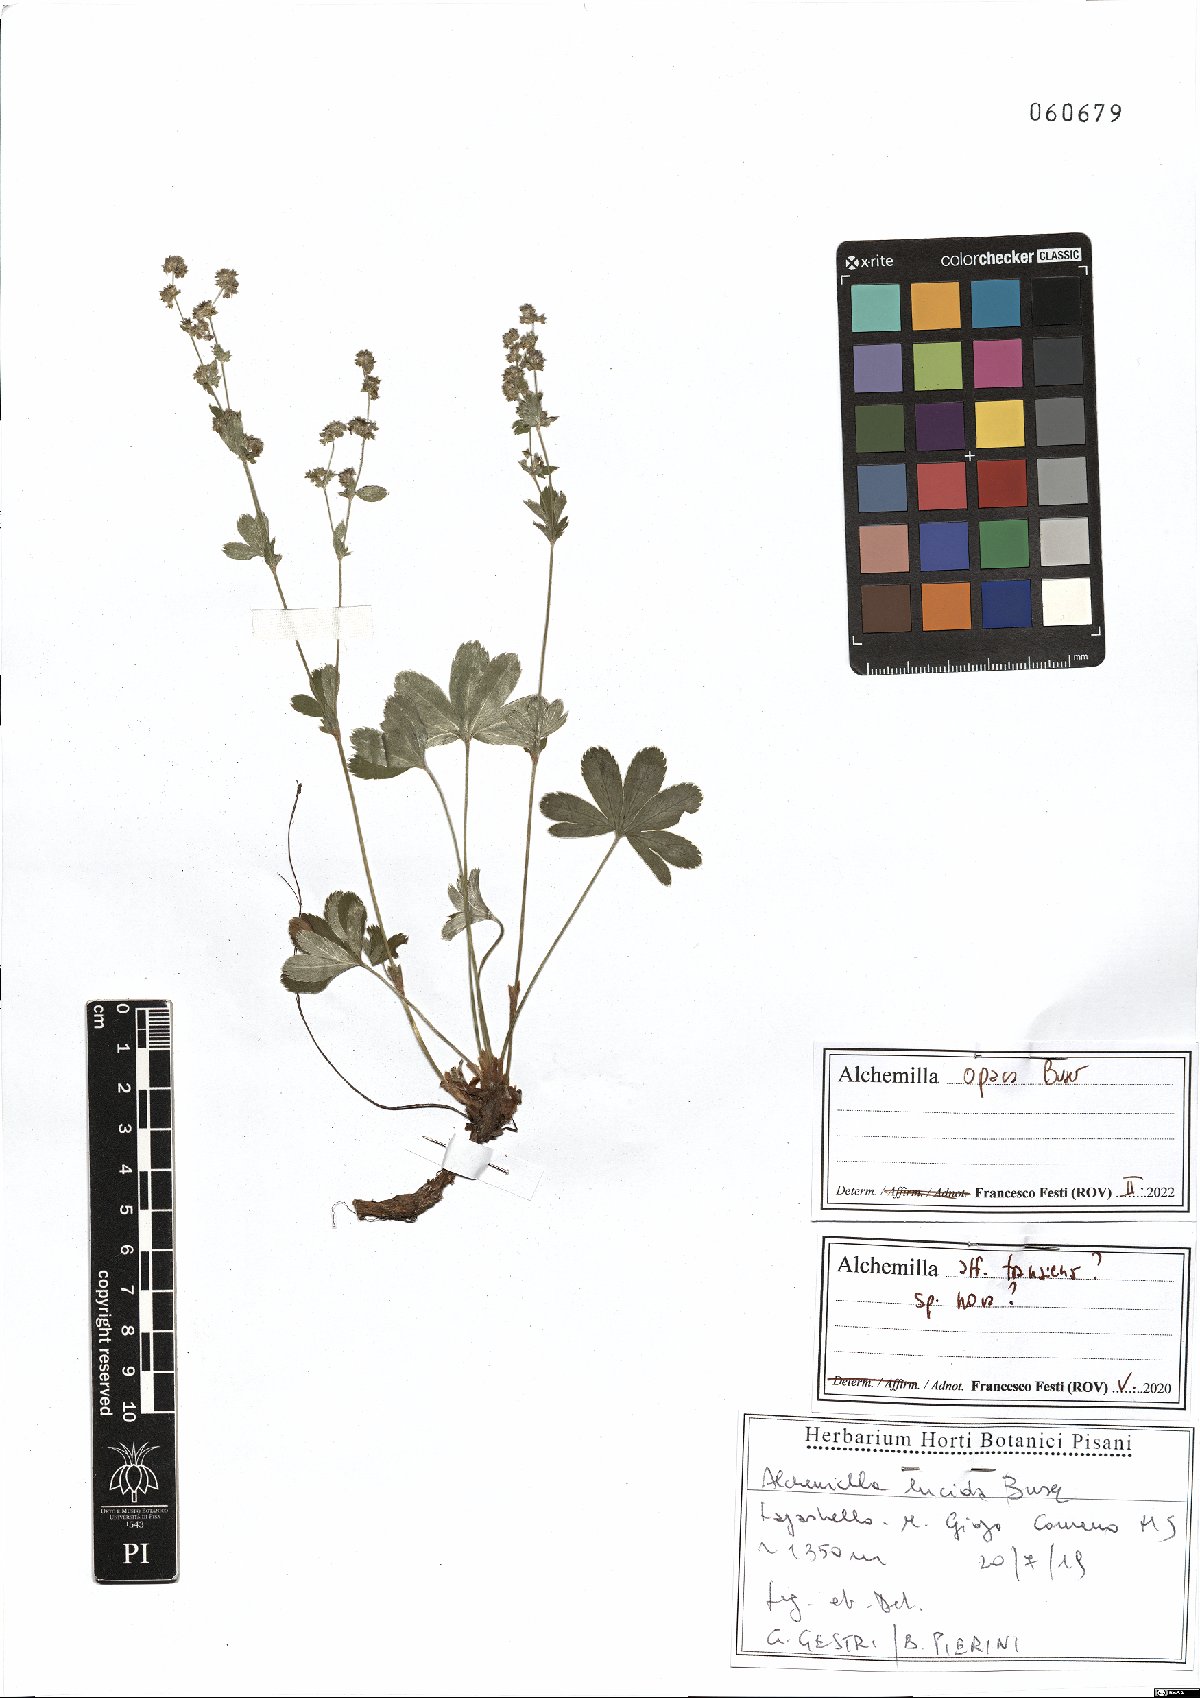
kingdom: Plantae
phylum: Tracheophyta
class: Magnoliopsida
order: Rosales
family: Rosaceae
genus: Alchemilla
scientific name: Alchemilla opaca
